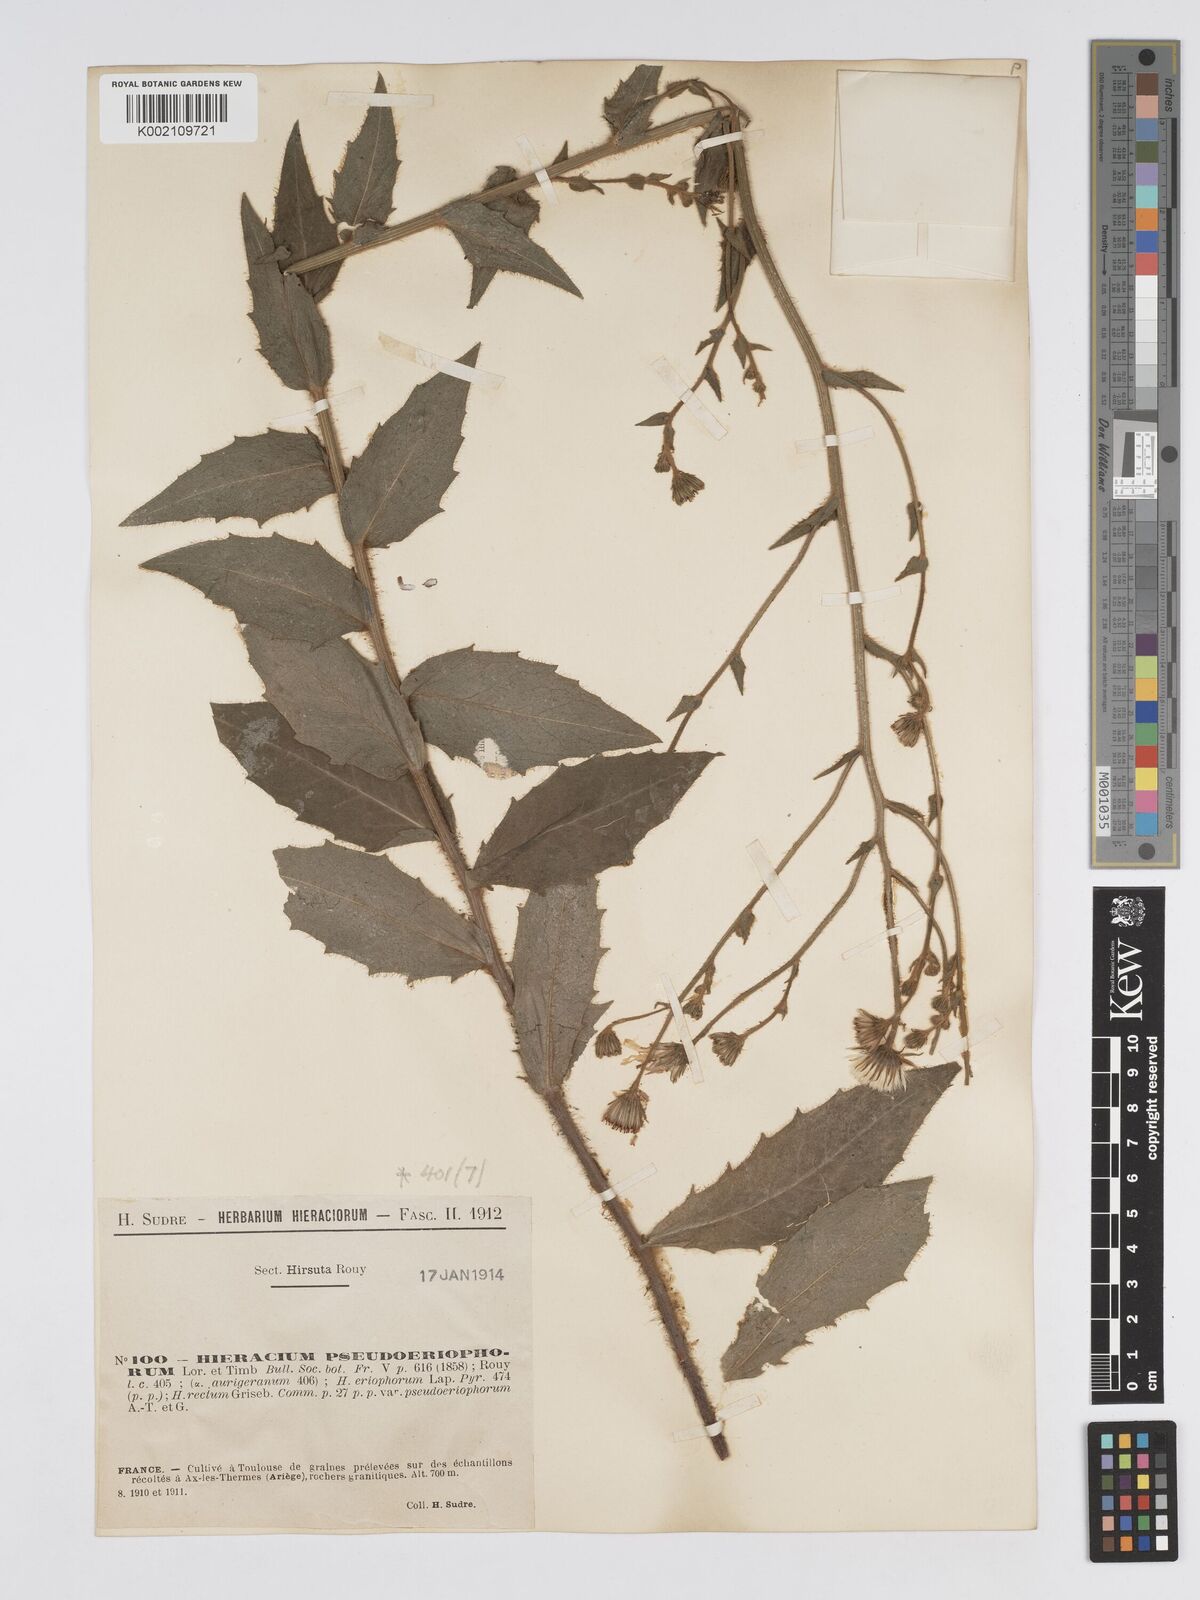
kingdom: Plantae
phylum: Tracheophyta
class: Magnoliopsida
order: Asterales
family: Asteraceae
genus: Hieracium
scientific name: Hieracium
